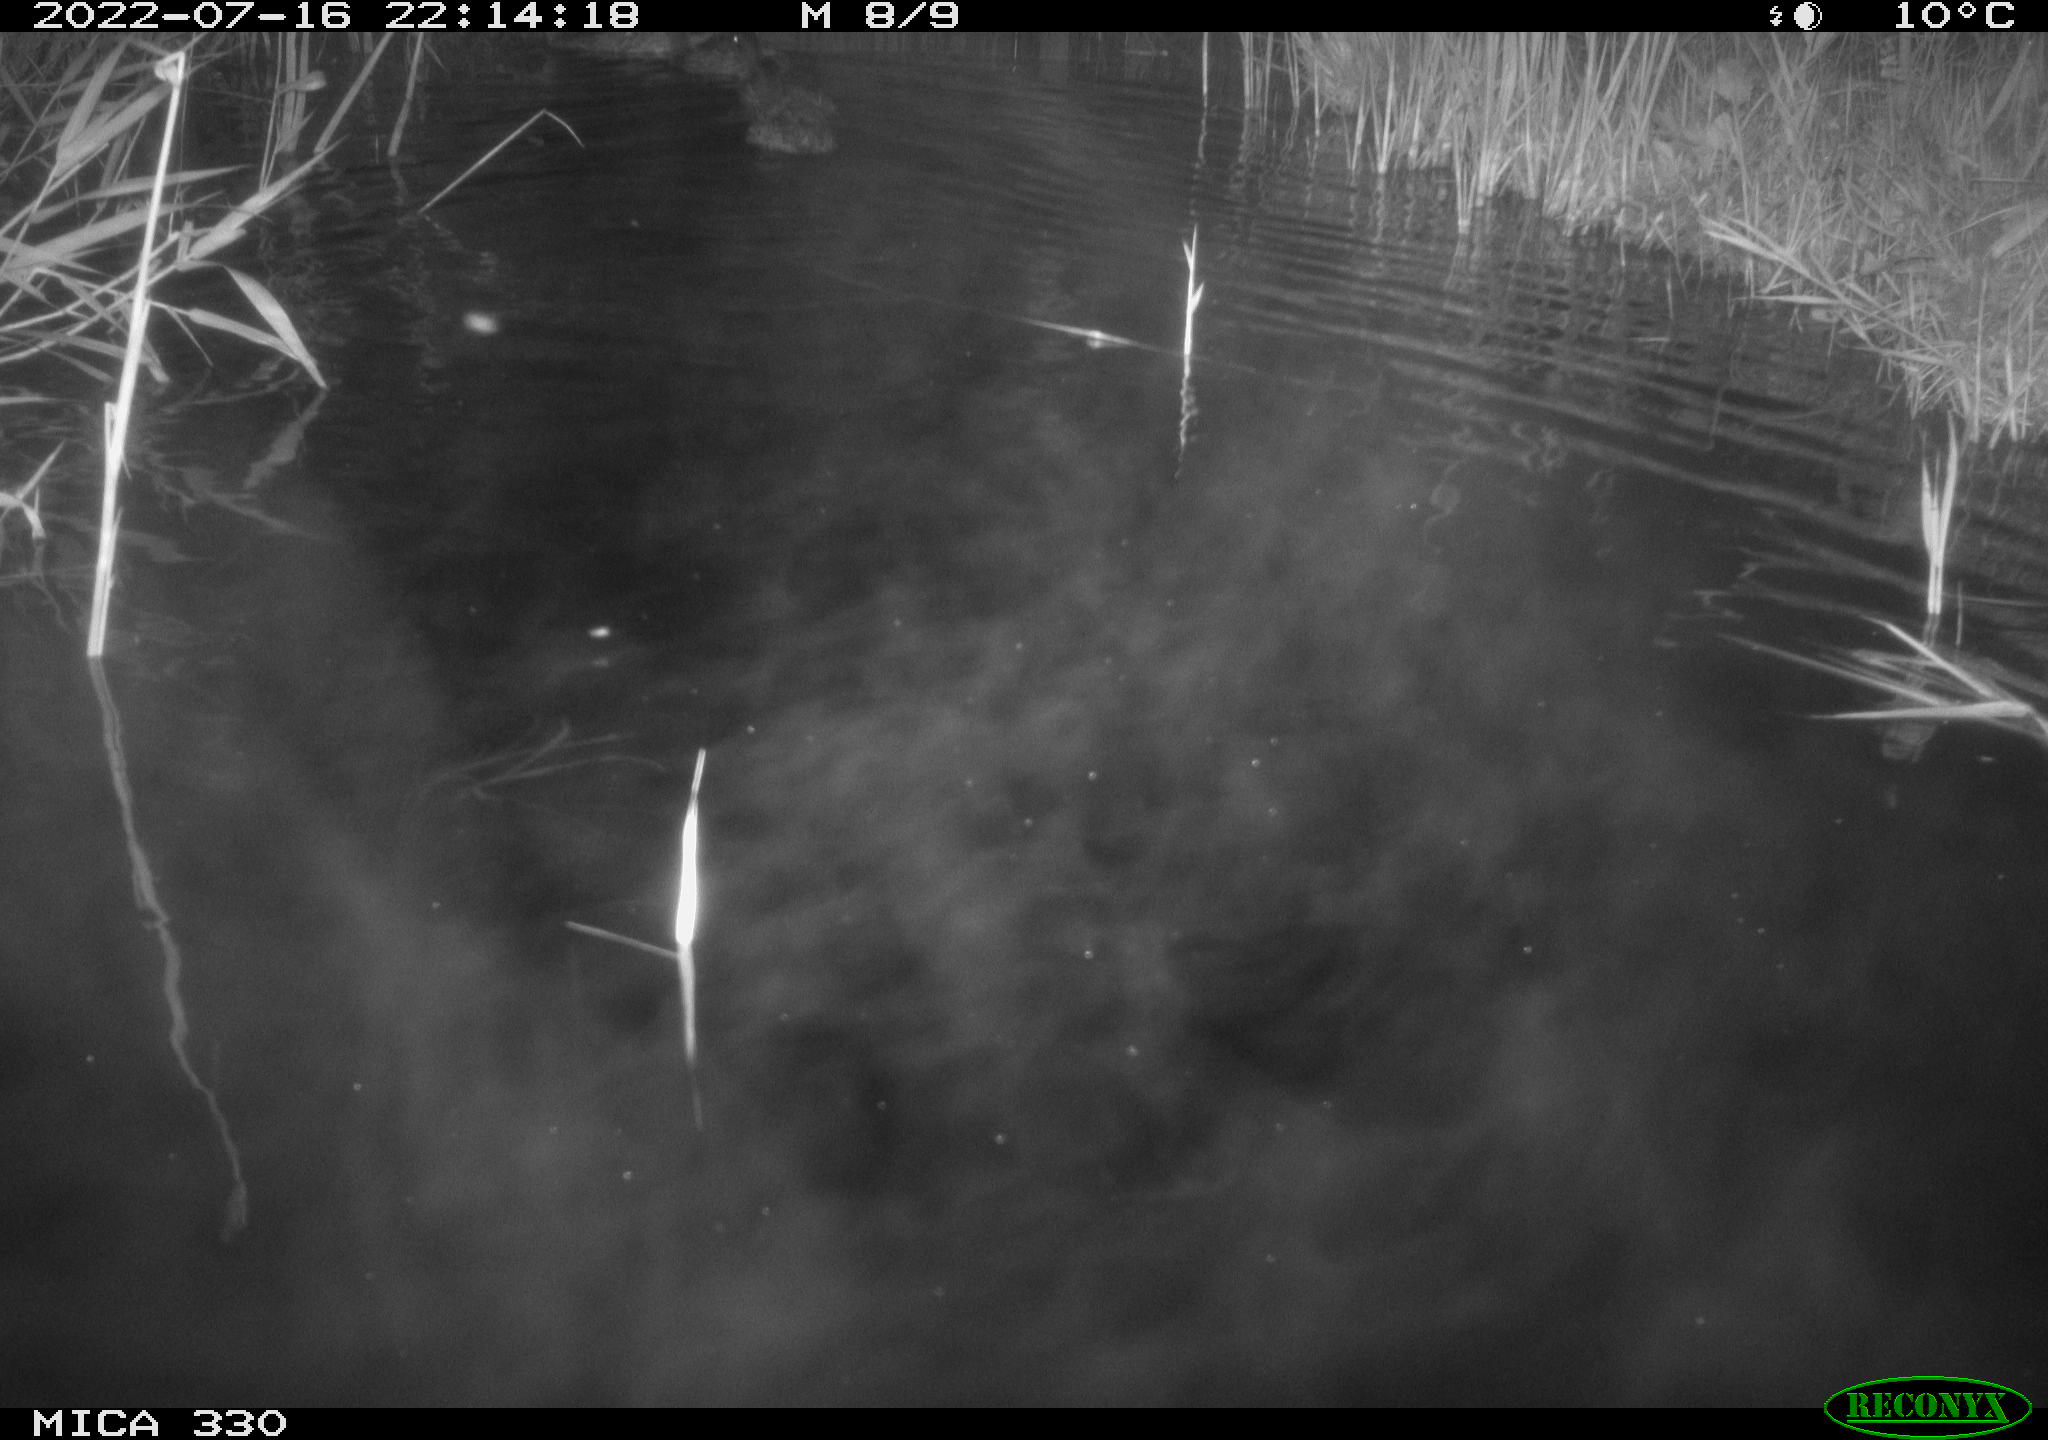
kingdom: Animalia
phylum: Chordata
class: Aves
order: Anseriformes
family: Anatidae
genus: Anas
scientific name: Anas platyrhynchos
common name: Mallard
